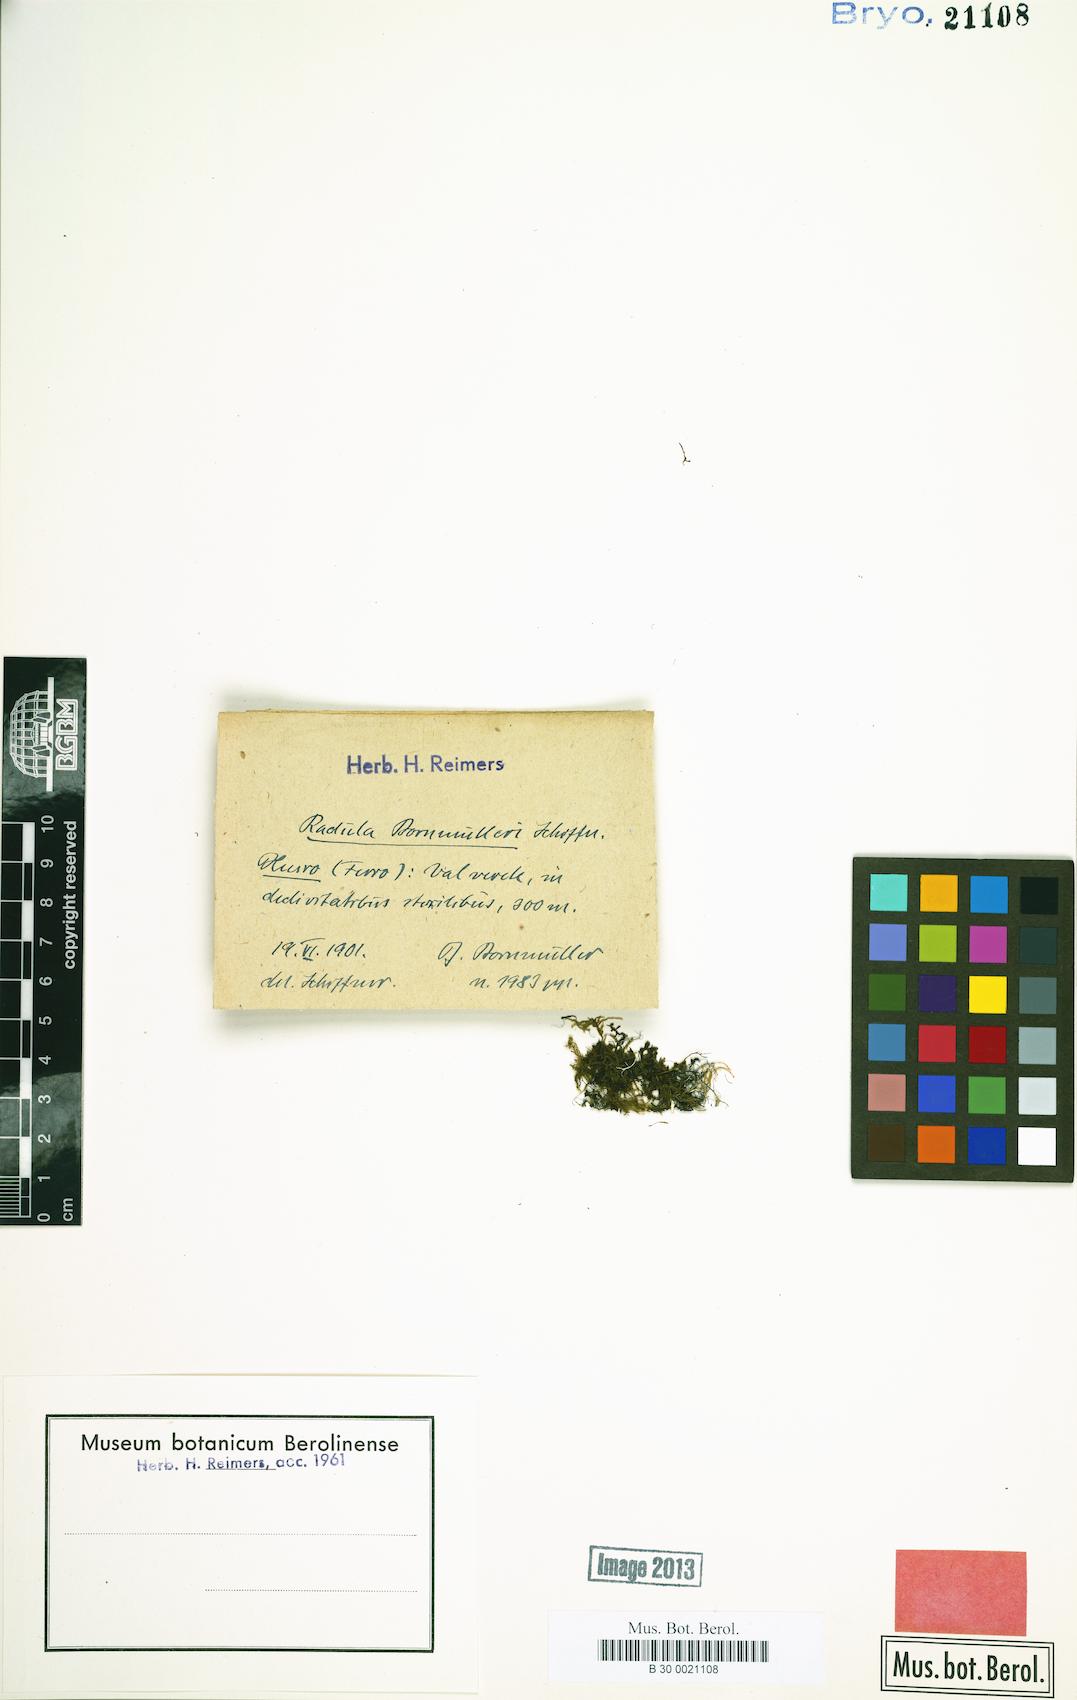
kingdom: Plantae
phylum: Marchantiophyta
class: Jungermanniopsida
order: Porellales
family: Radulaceae
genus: Radula
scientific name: Radula lindenbergiana
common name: Lindenberg's scalewort
